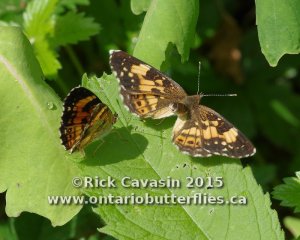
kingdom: Animalia
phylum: Arthropoda
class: Insecta
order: Lepidoptera
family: Nymphalidae
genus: Chlosyne
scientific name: Chlosyne nycteis
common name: Silvery Checkerspot
